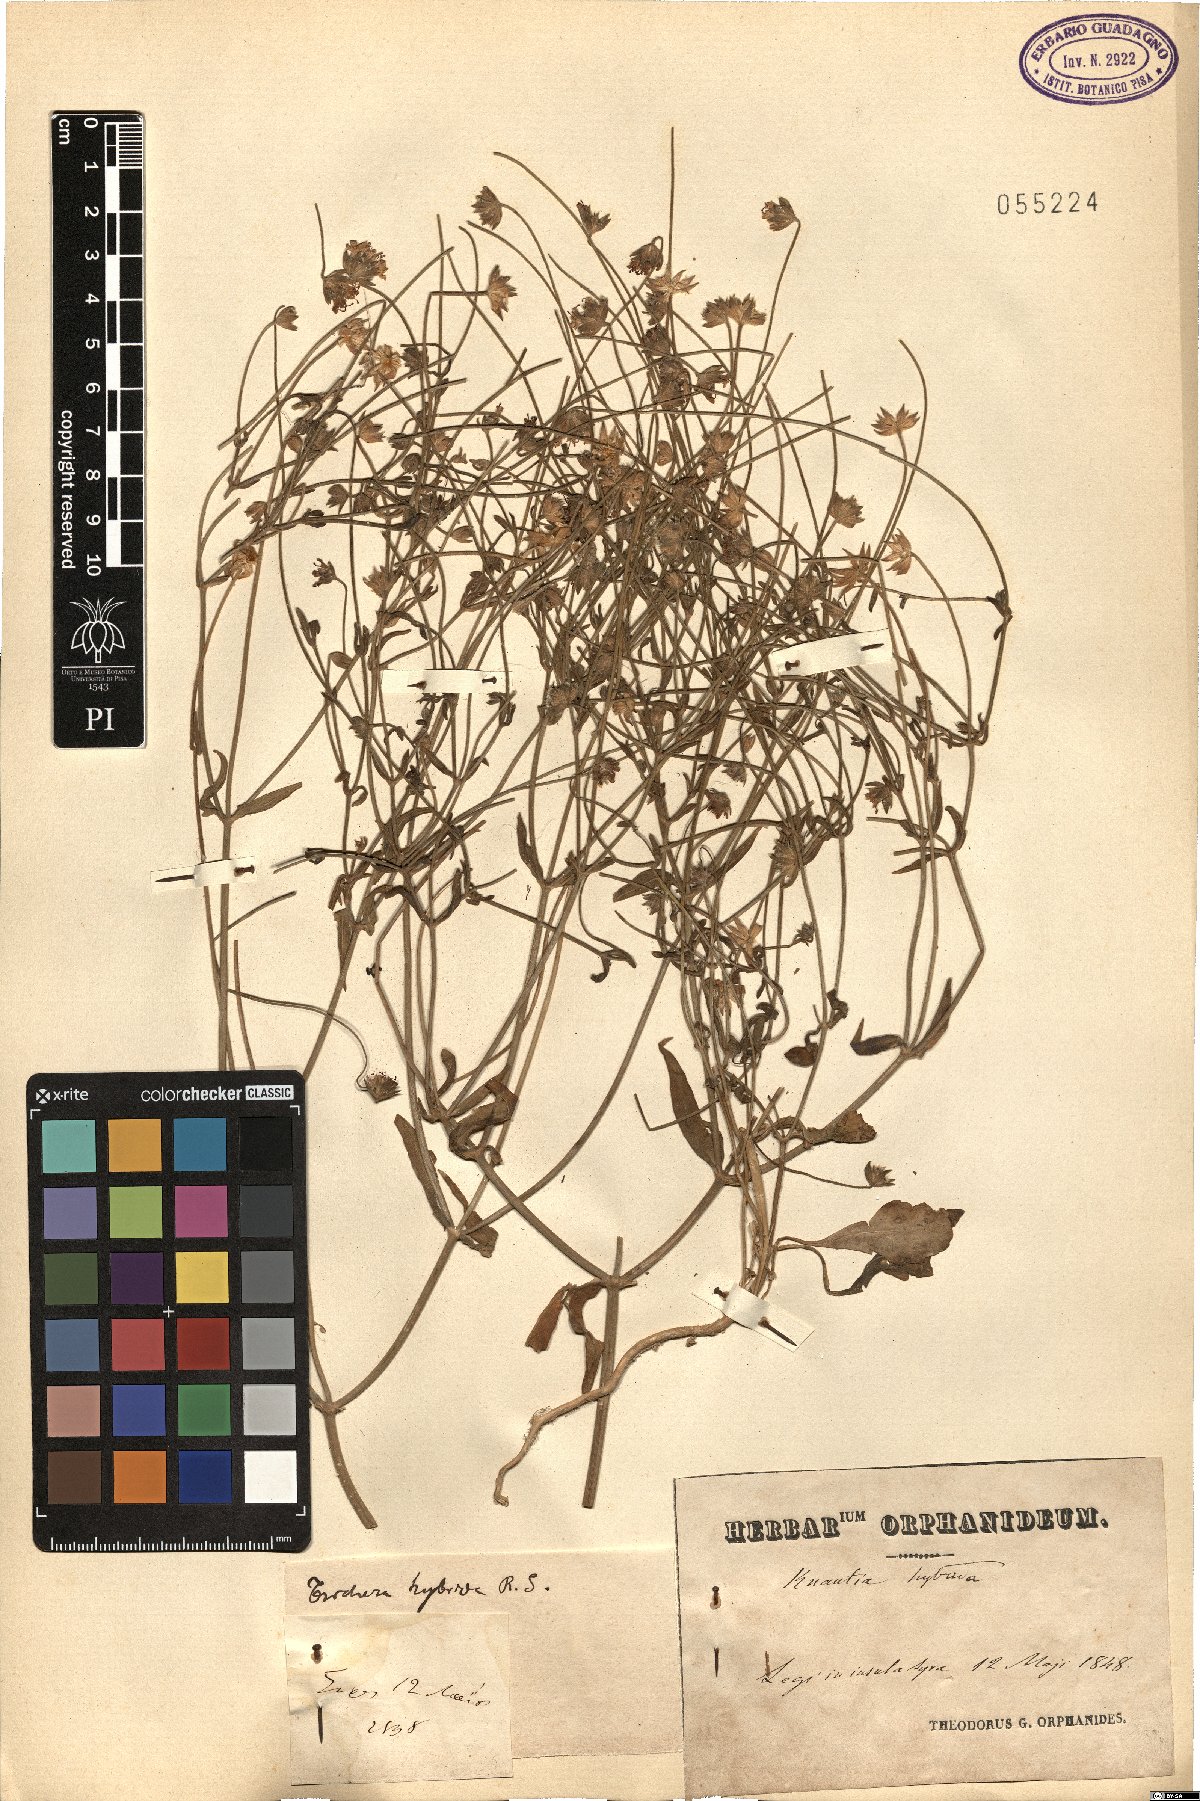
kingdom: Plantae
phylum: Tracheophyta
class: Magnoliopsida
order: Dipsacales
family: Caprifoliaceae
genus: Knautia
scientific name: Knautia integrifolia
